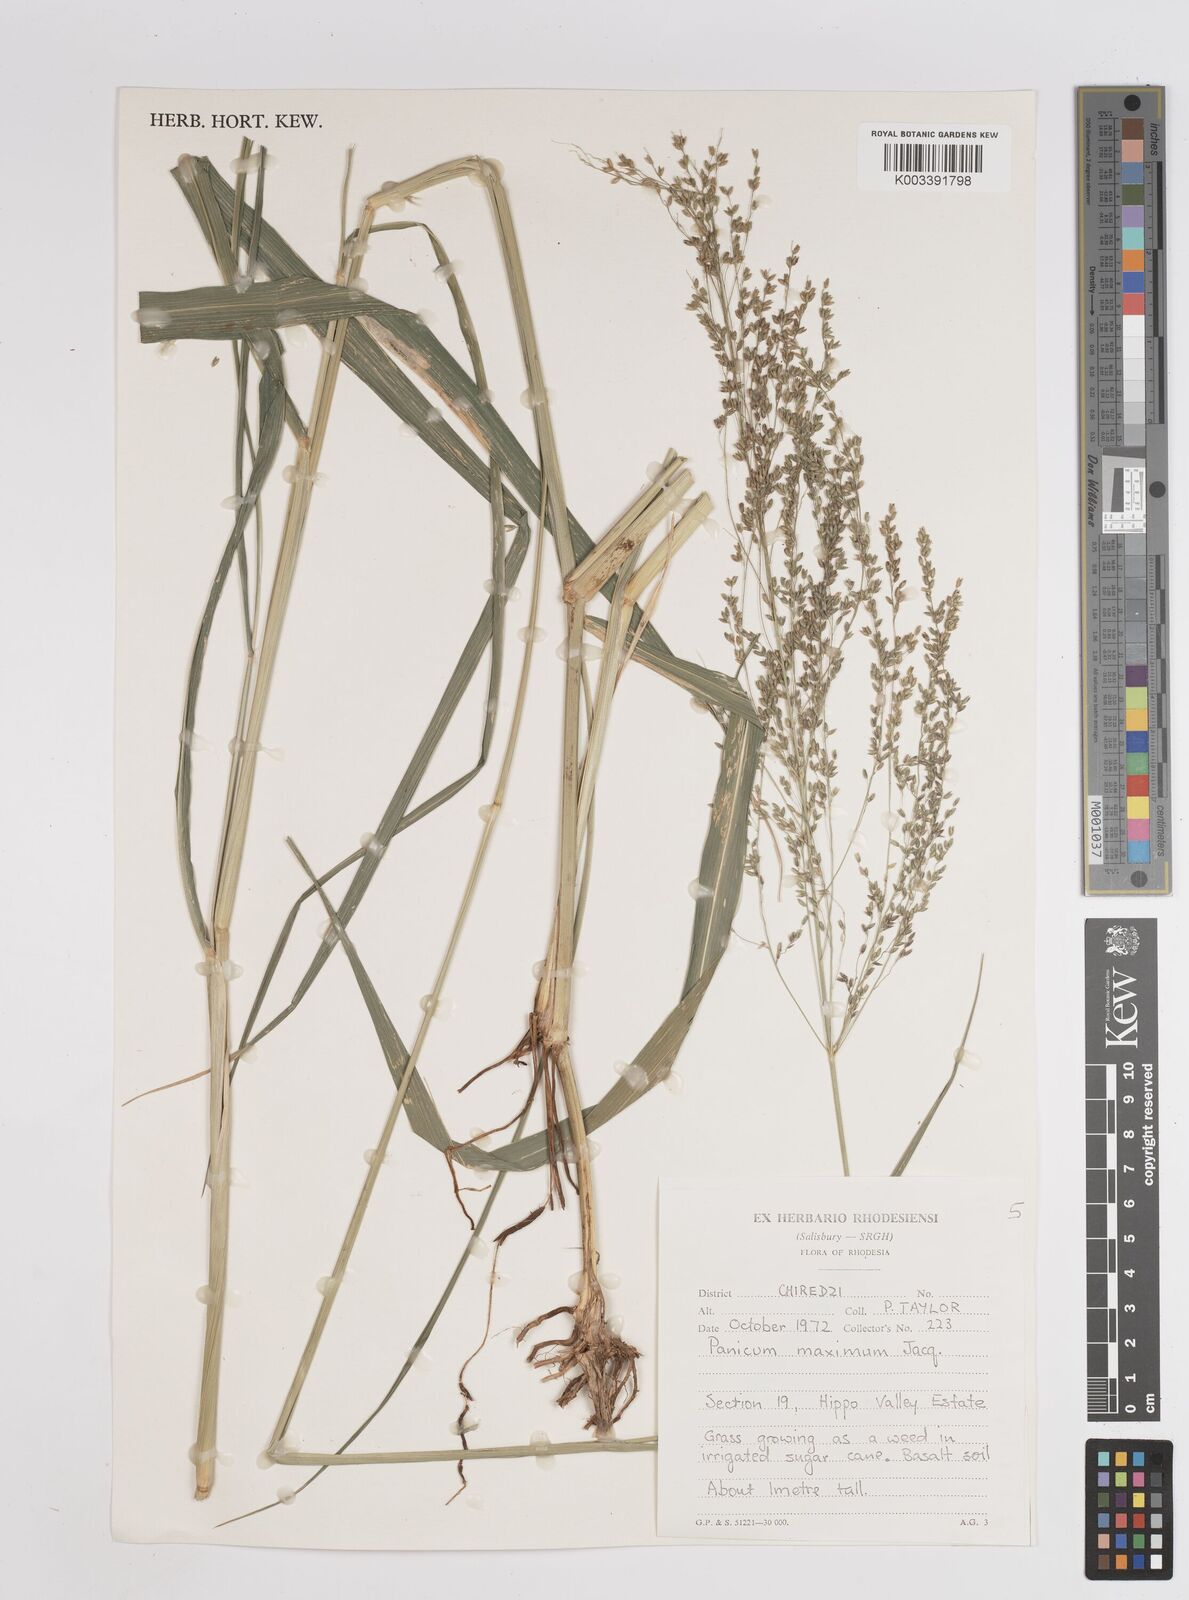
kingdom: Plantae
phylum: Tracheophyta
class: Liliopsida
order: Poales
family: Poaceae
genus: Megathyrsus
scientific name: Megathyrsus maximus
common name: Guineagrass
